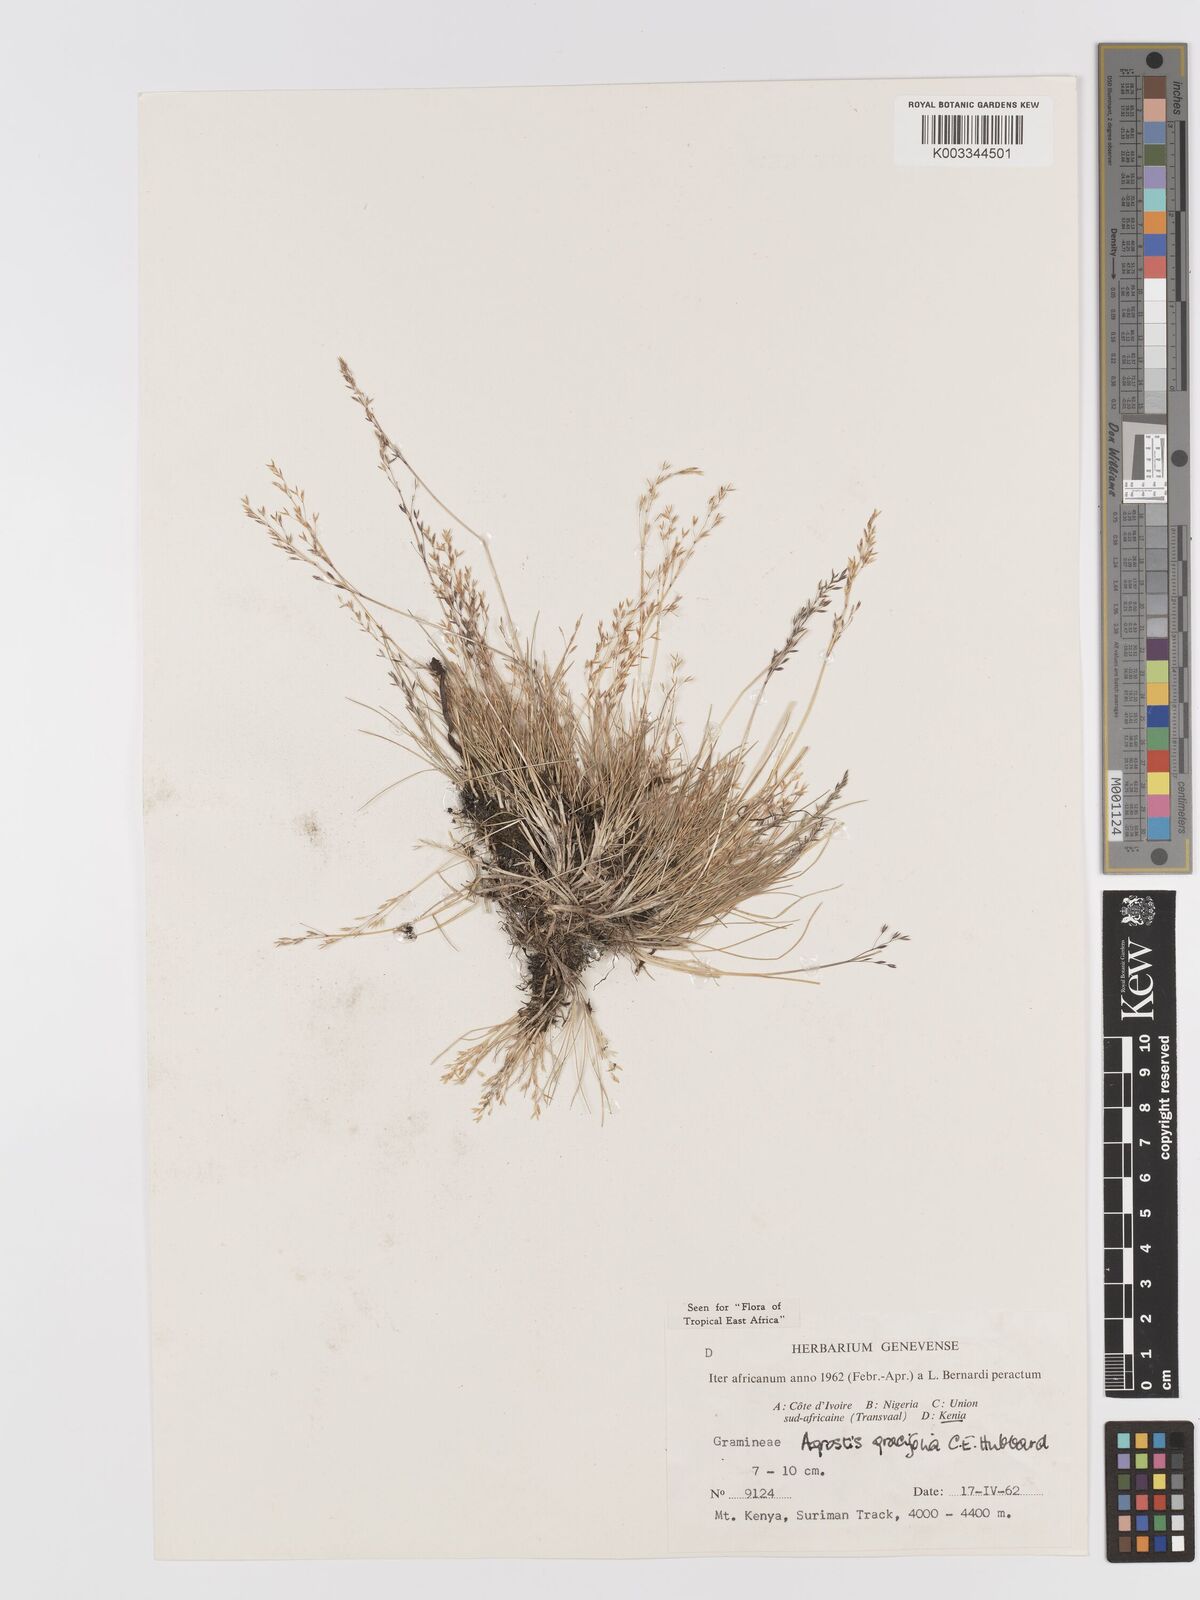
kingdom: Plantae
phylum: Tracheophyta
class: Liliopsida
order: Poales
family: Poaceae
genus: Agrostis
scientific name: Agrostis gracilifolia
